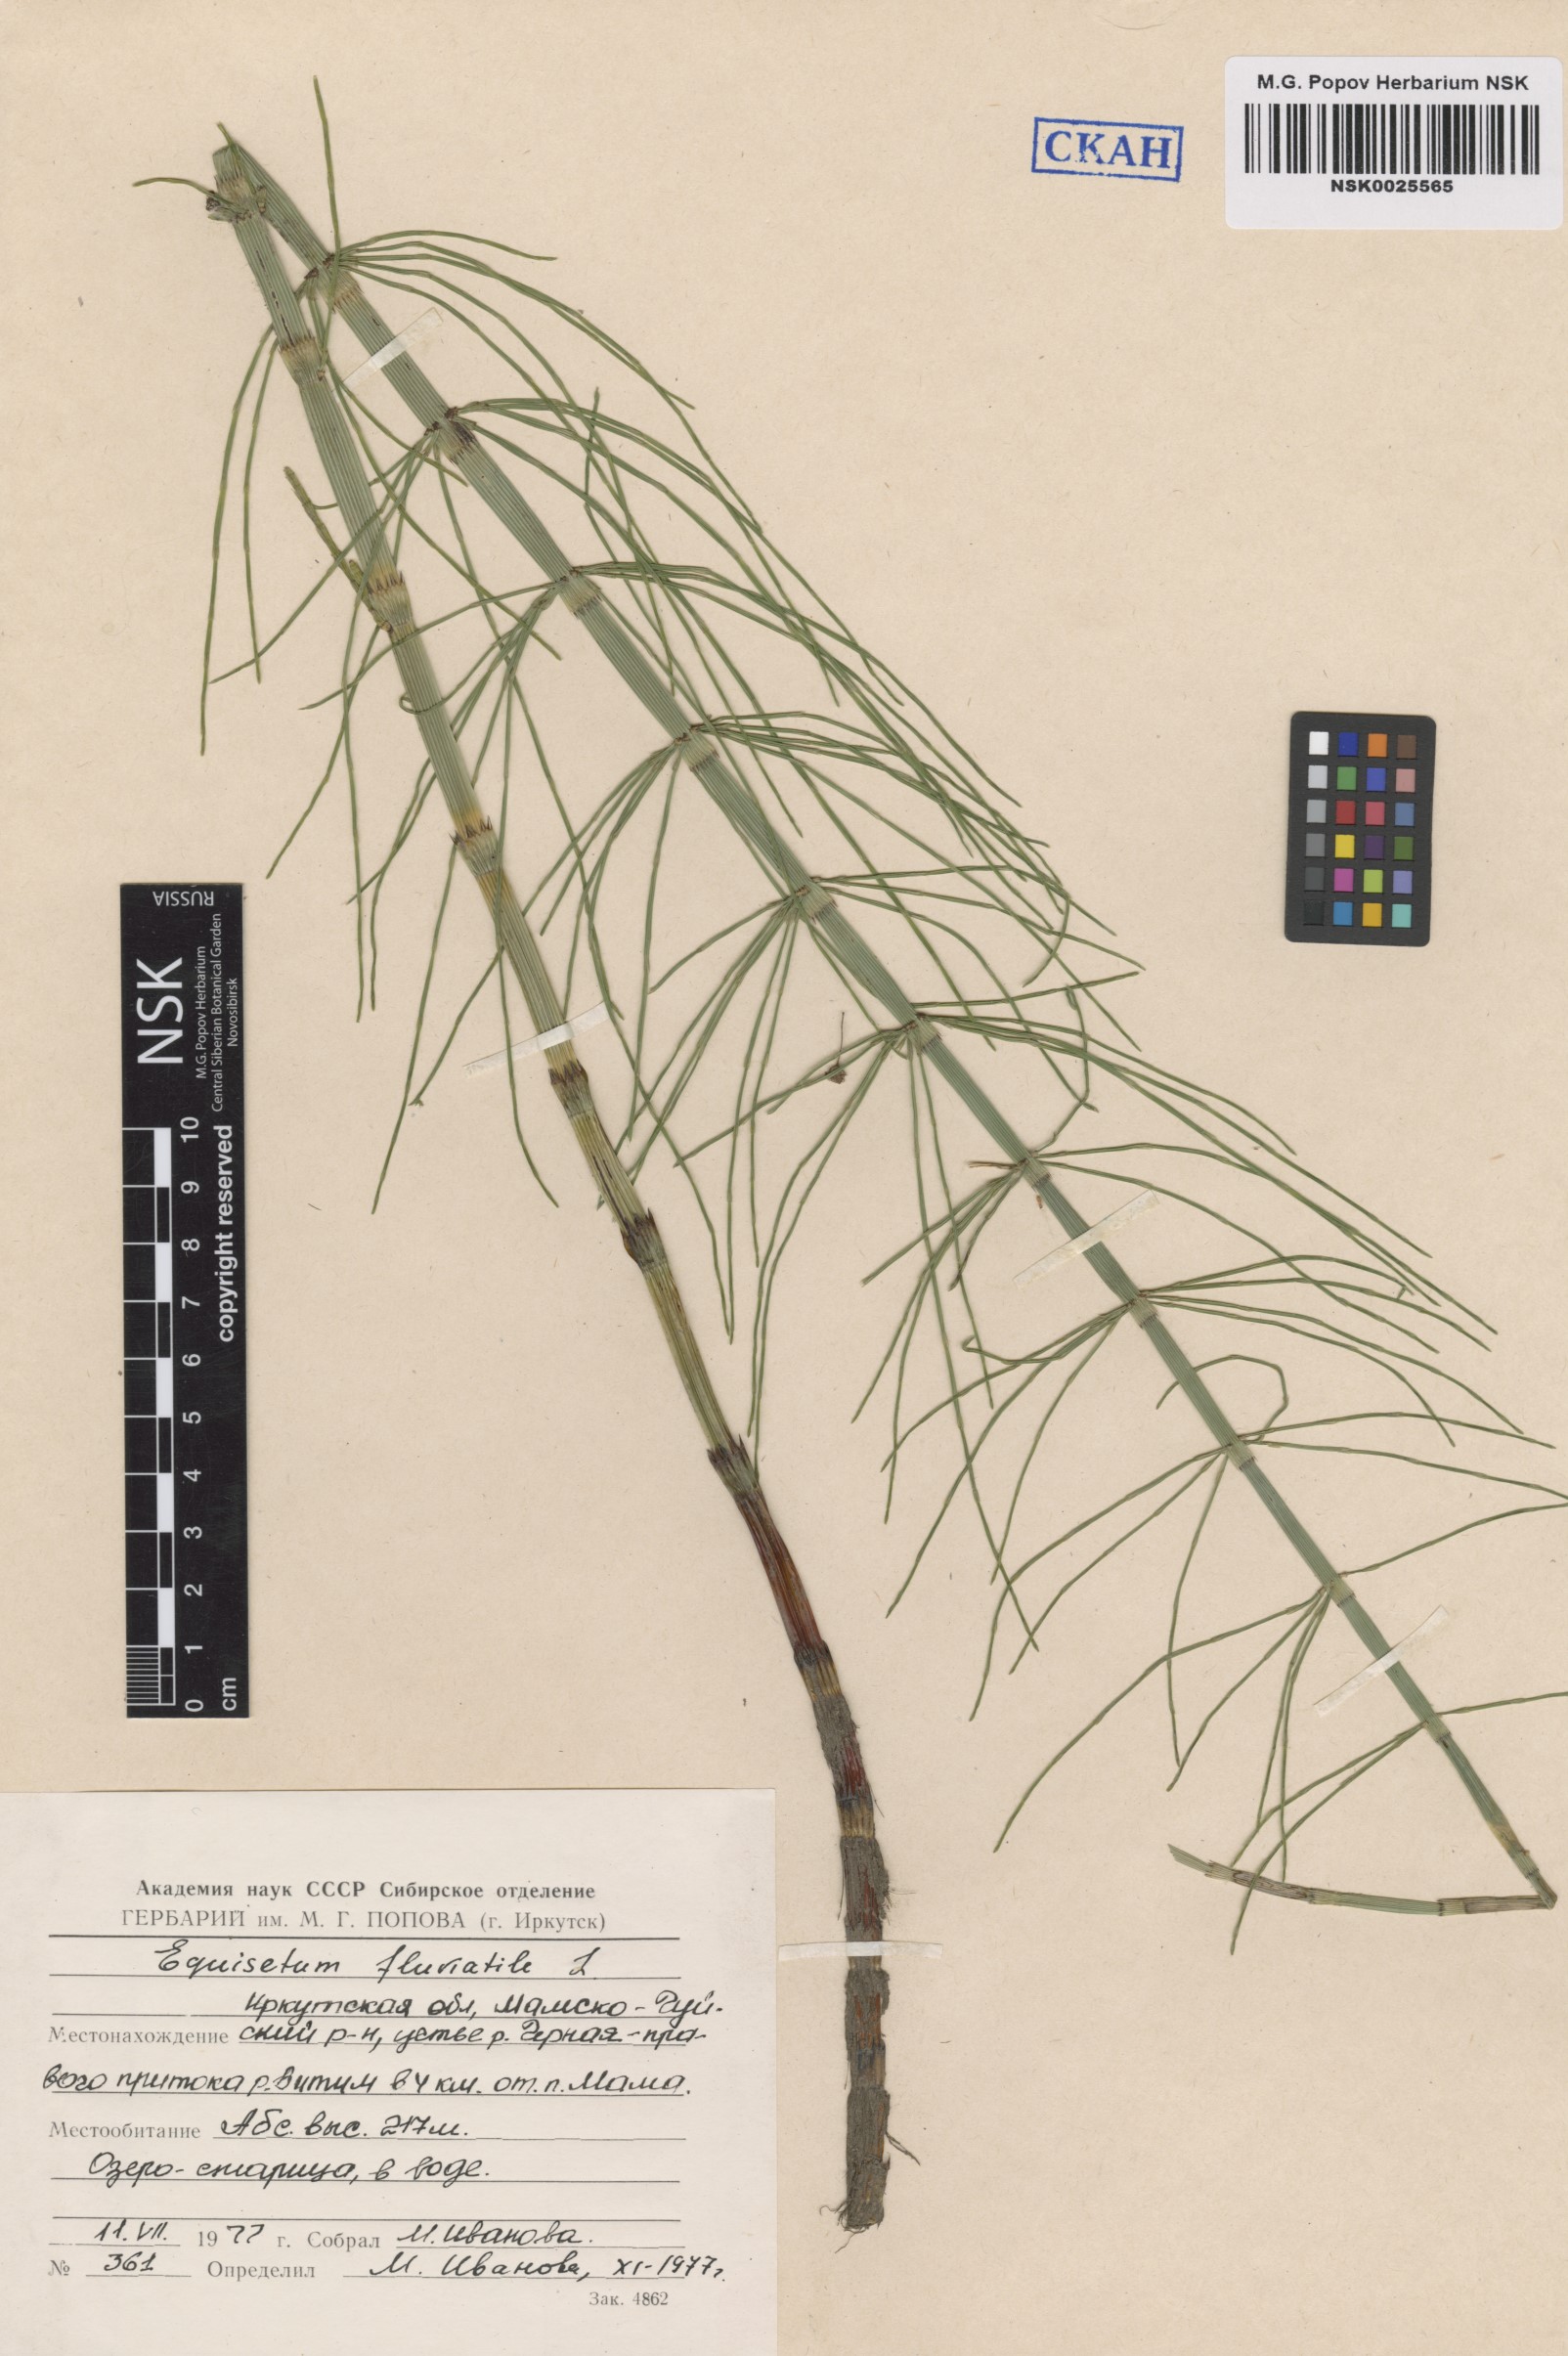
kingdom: Plantae
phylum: Tracheophyta
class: Polypodiopsida
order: Equisetales
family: Equisetaceae
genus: Equisetum
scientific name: Equisetum fluviatile
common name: Water horsetail
